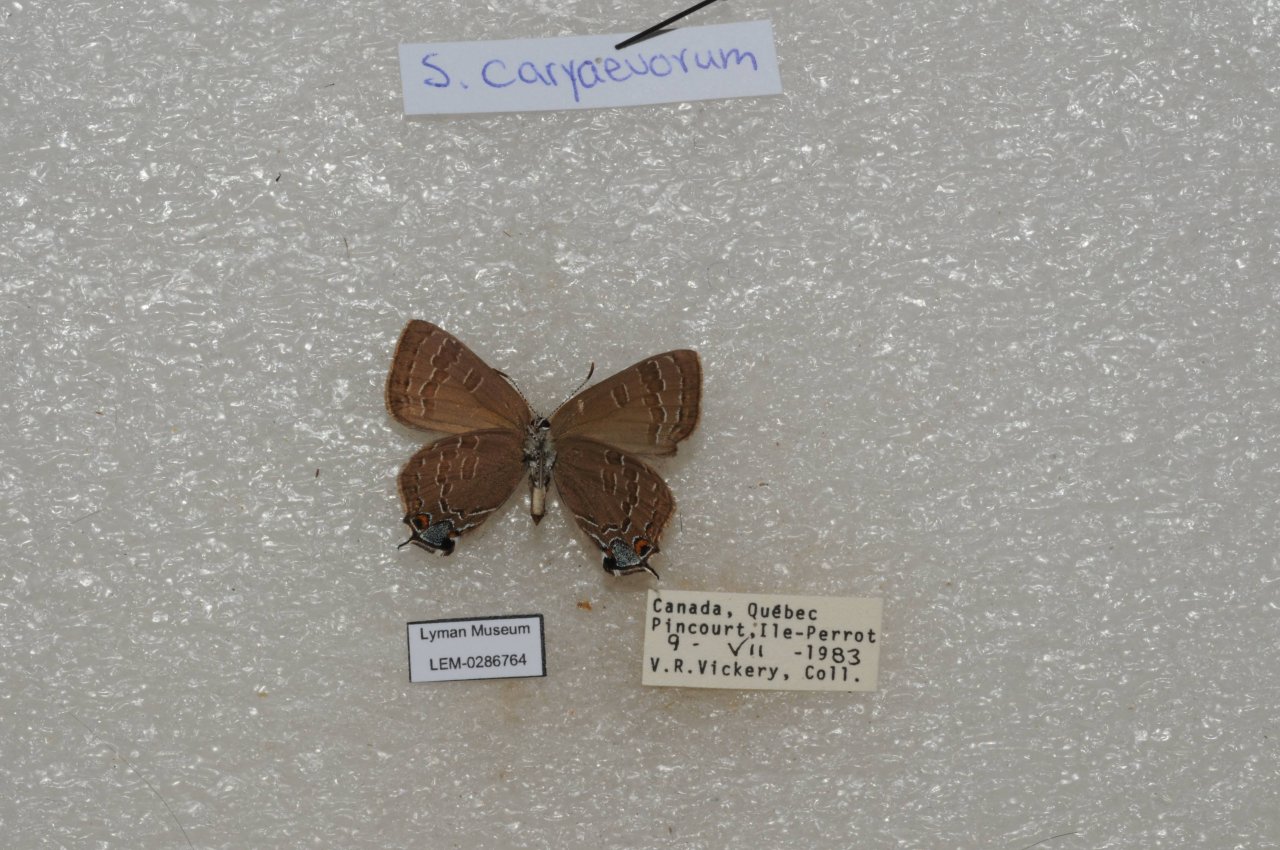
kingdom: Animalia
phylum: Arthropoda
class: Insecta
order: Lepidoptera
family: Lycaenidae
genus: Strymon
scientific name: Strymon caryaevorus
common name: Hickory Hairstreak
